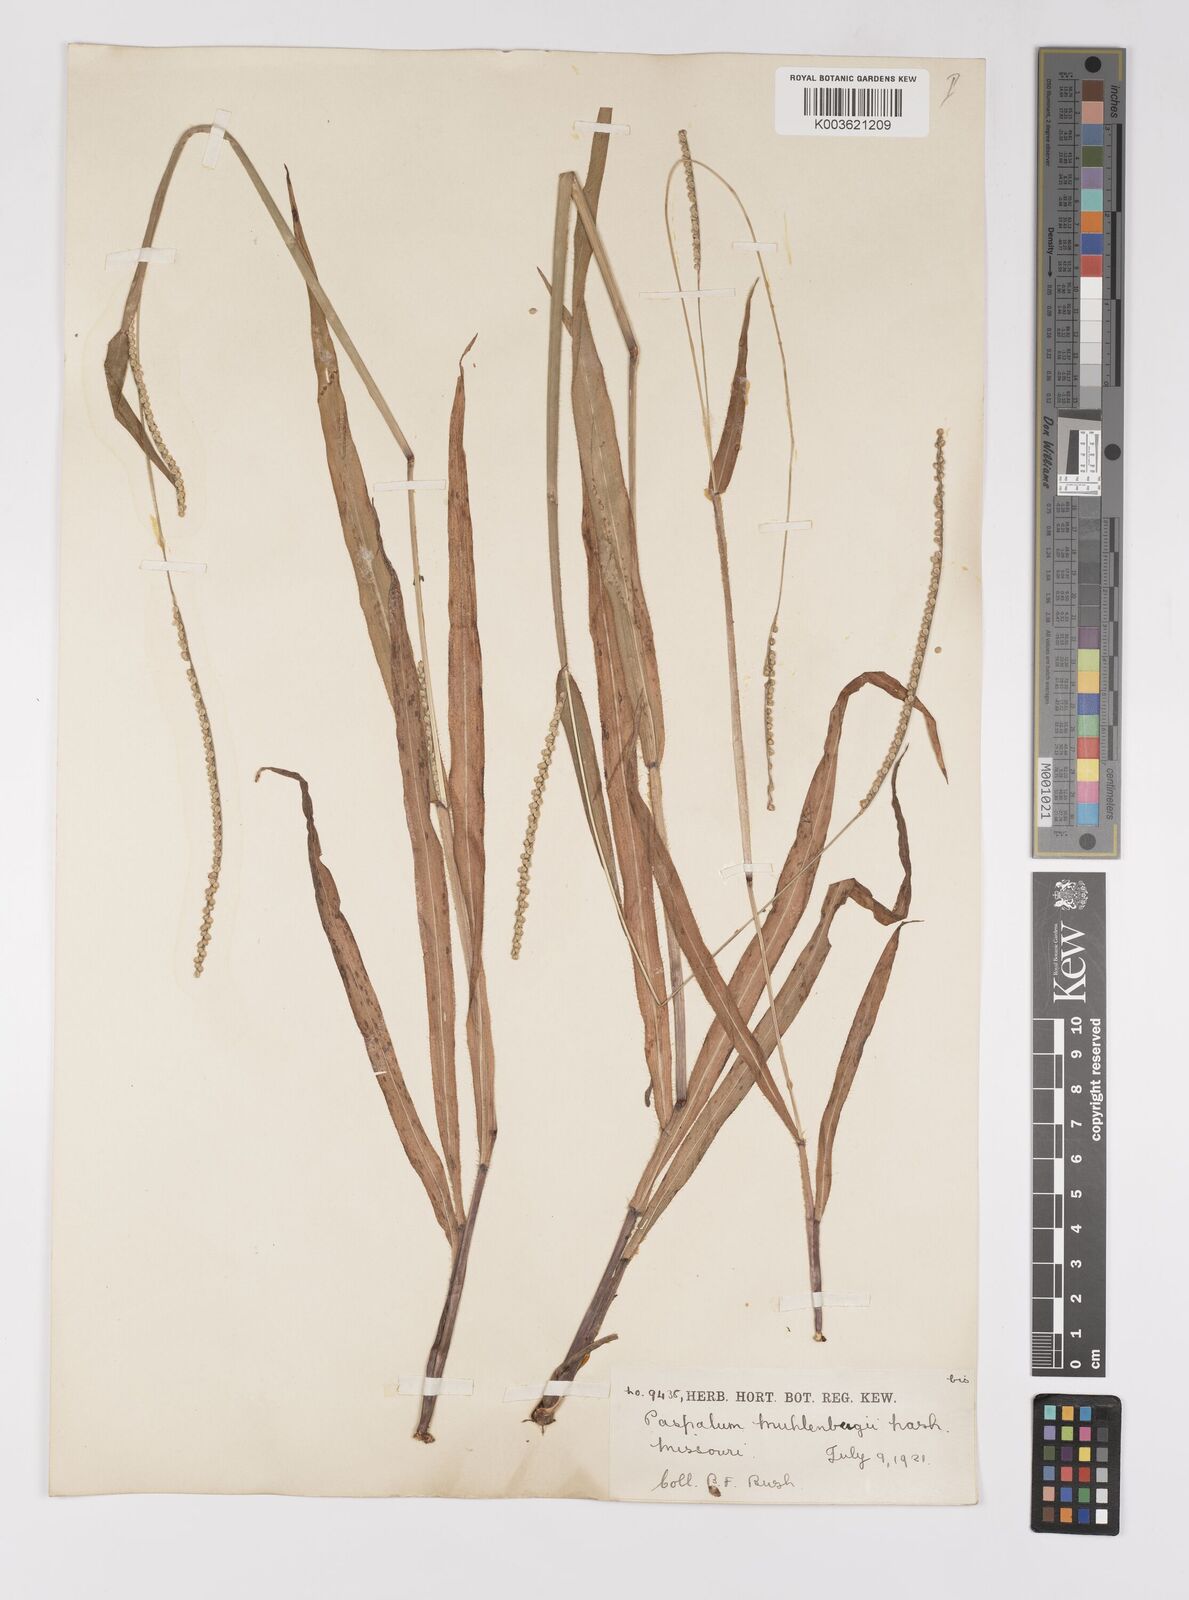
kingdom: Plantae
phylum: Tracheophyta
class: Liliopsida
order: Poales
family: Poaceae
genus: Paspalum
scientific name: Paspalum setaceum
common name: Slender paspalum
